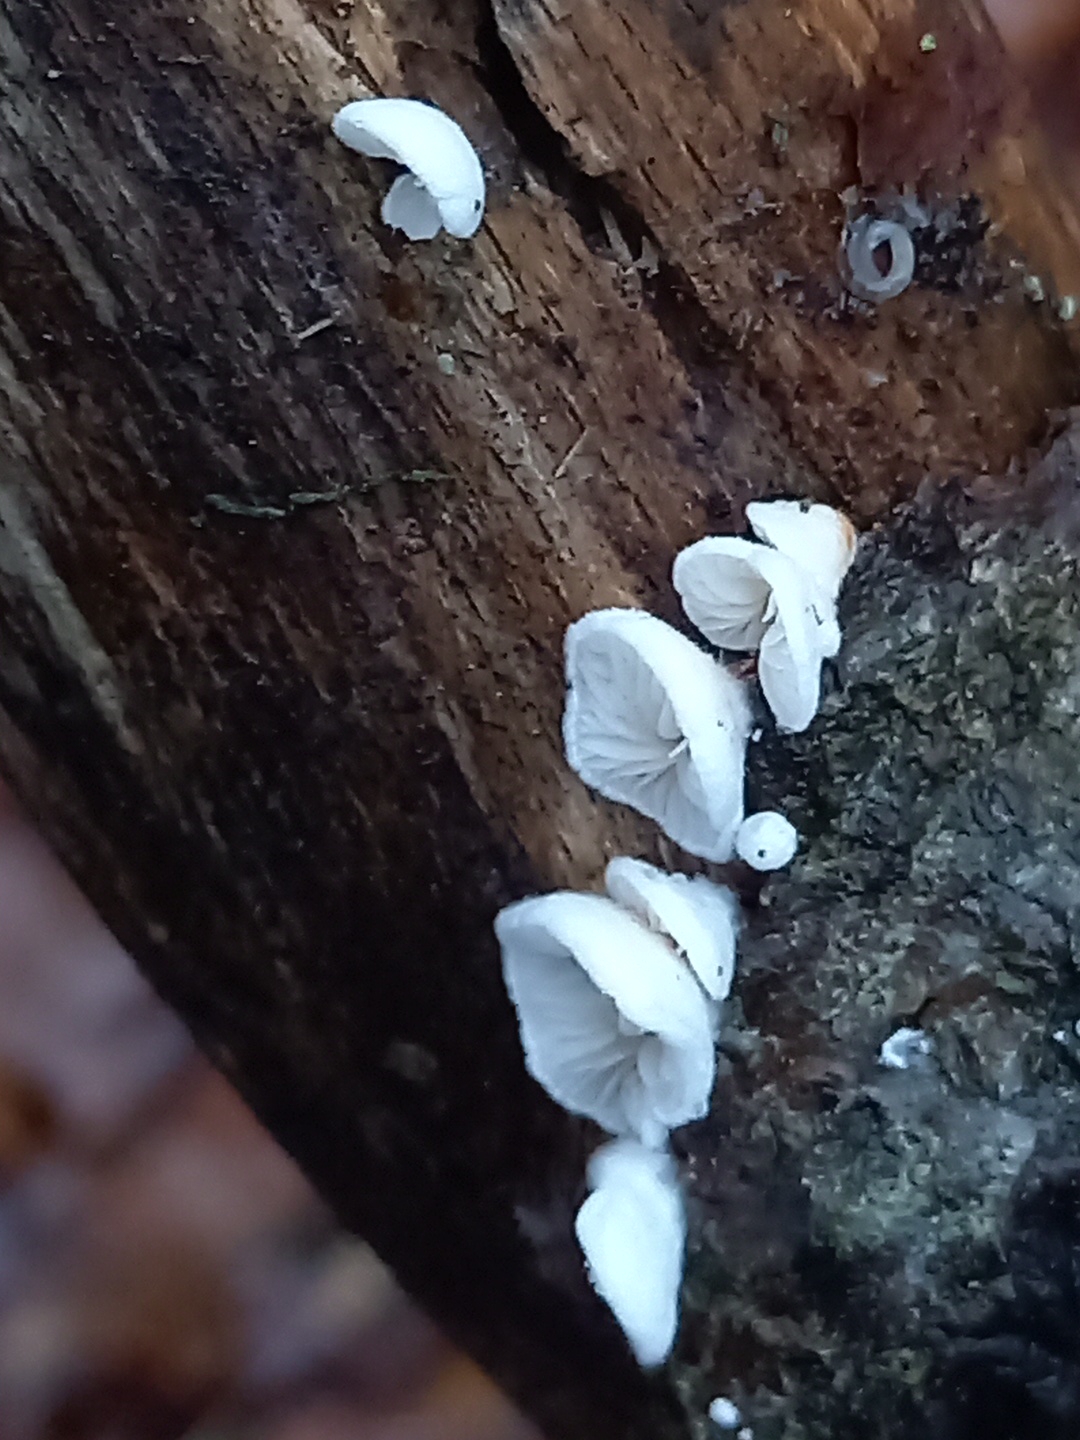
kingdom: Fungi
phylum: Basidiomycota
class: Agaricomycetes
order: Agaricales
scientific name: Agaricales
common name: champignonordenen
